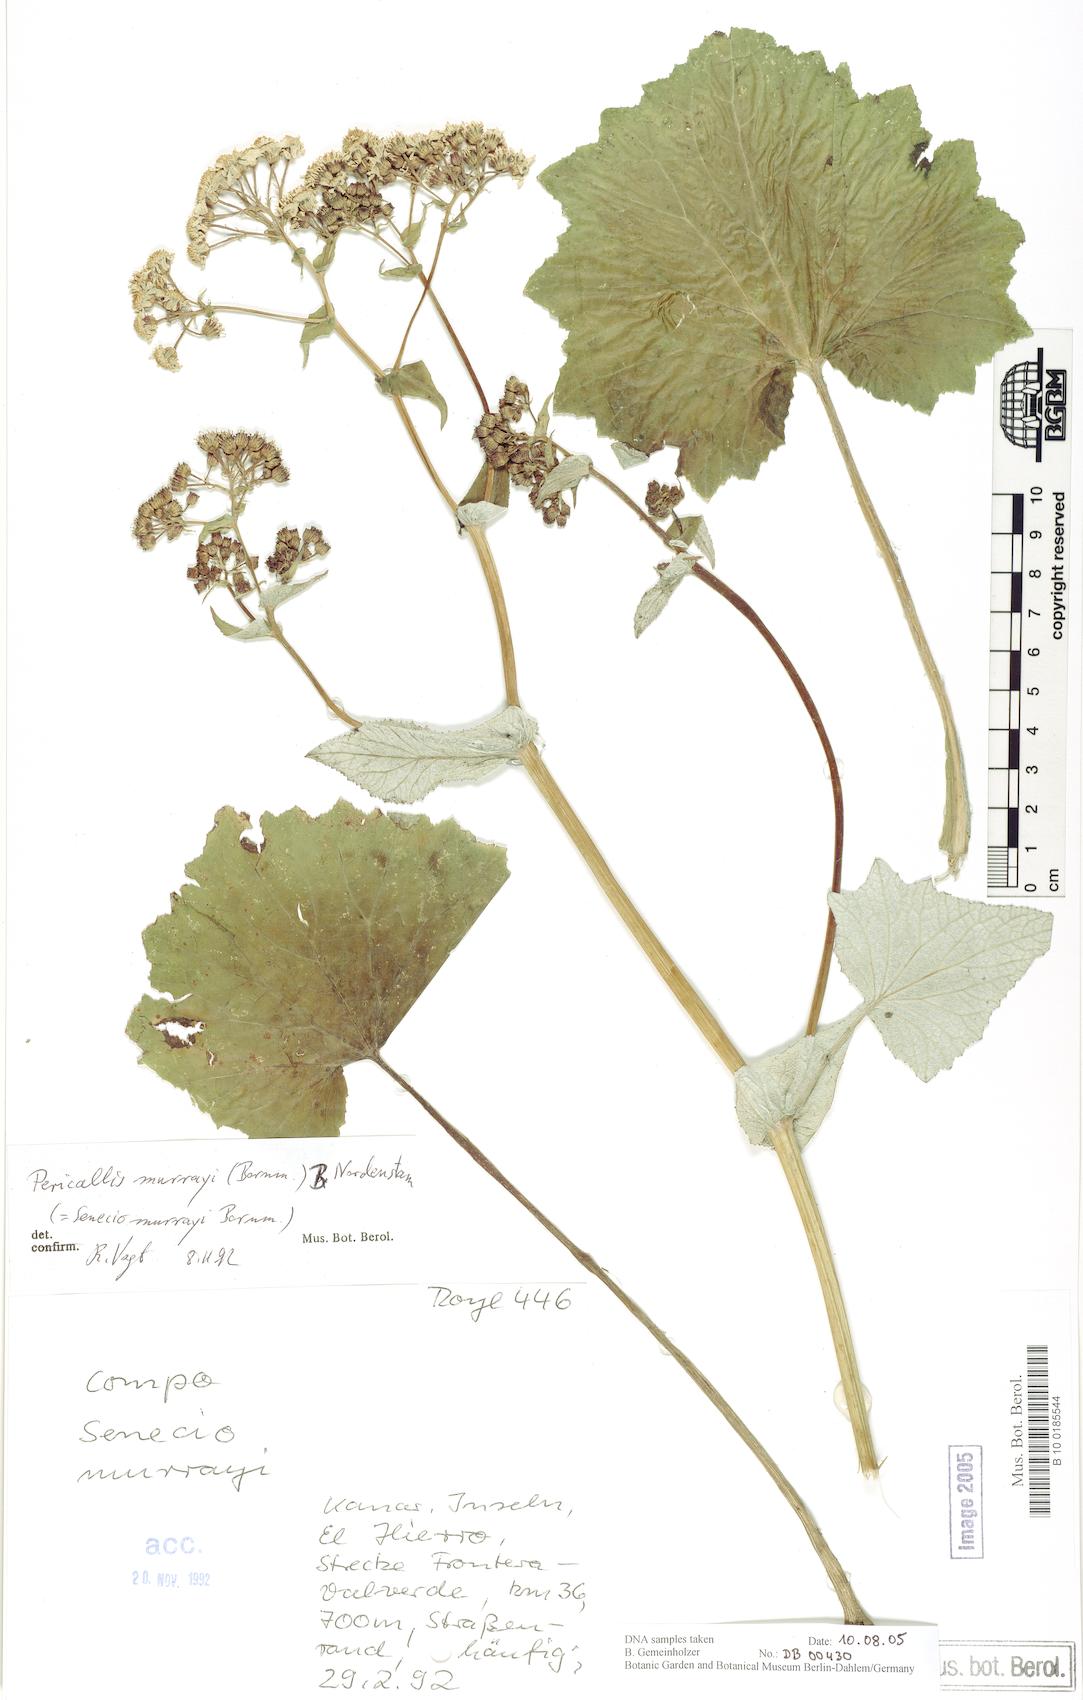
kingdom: Plantae
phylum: Tracheophyta
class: Magnoliopsida
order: Asterales
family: Asteraceae
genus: Pericallis
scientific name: Pericallis murrayi
